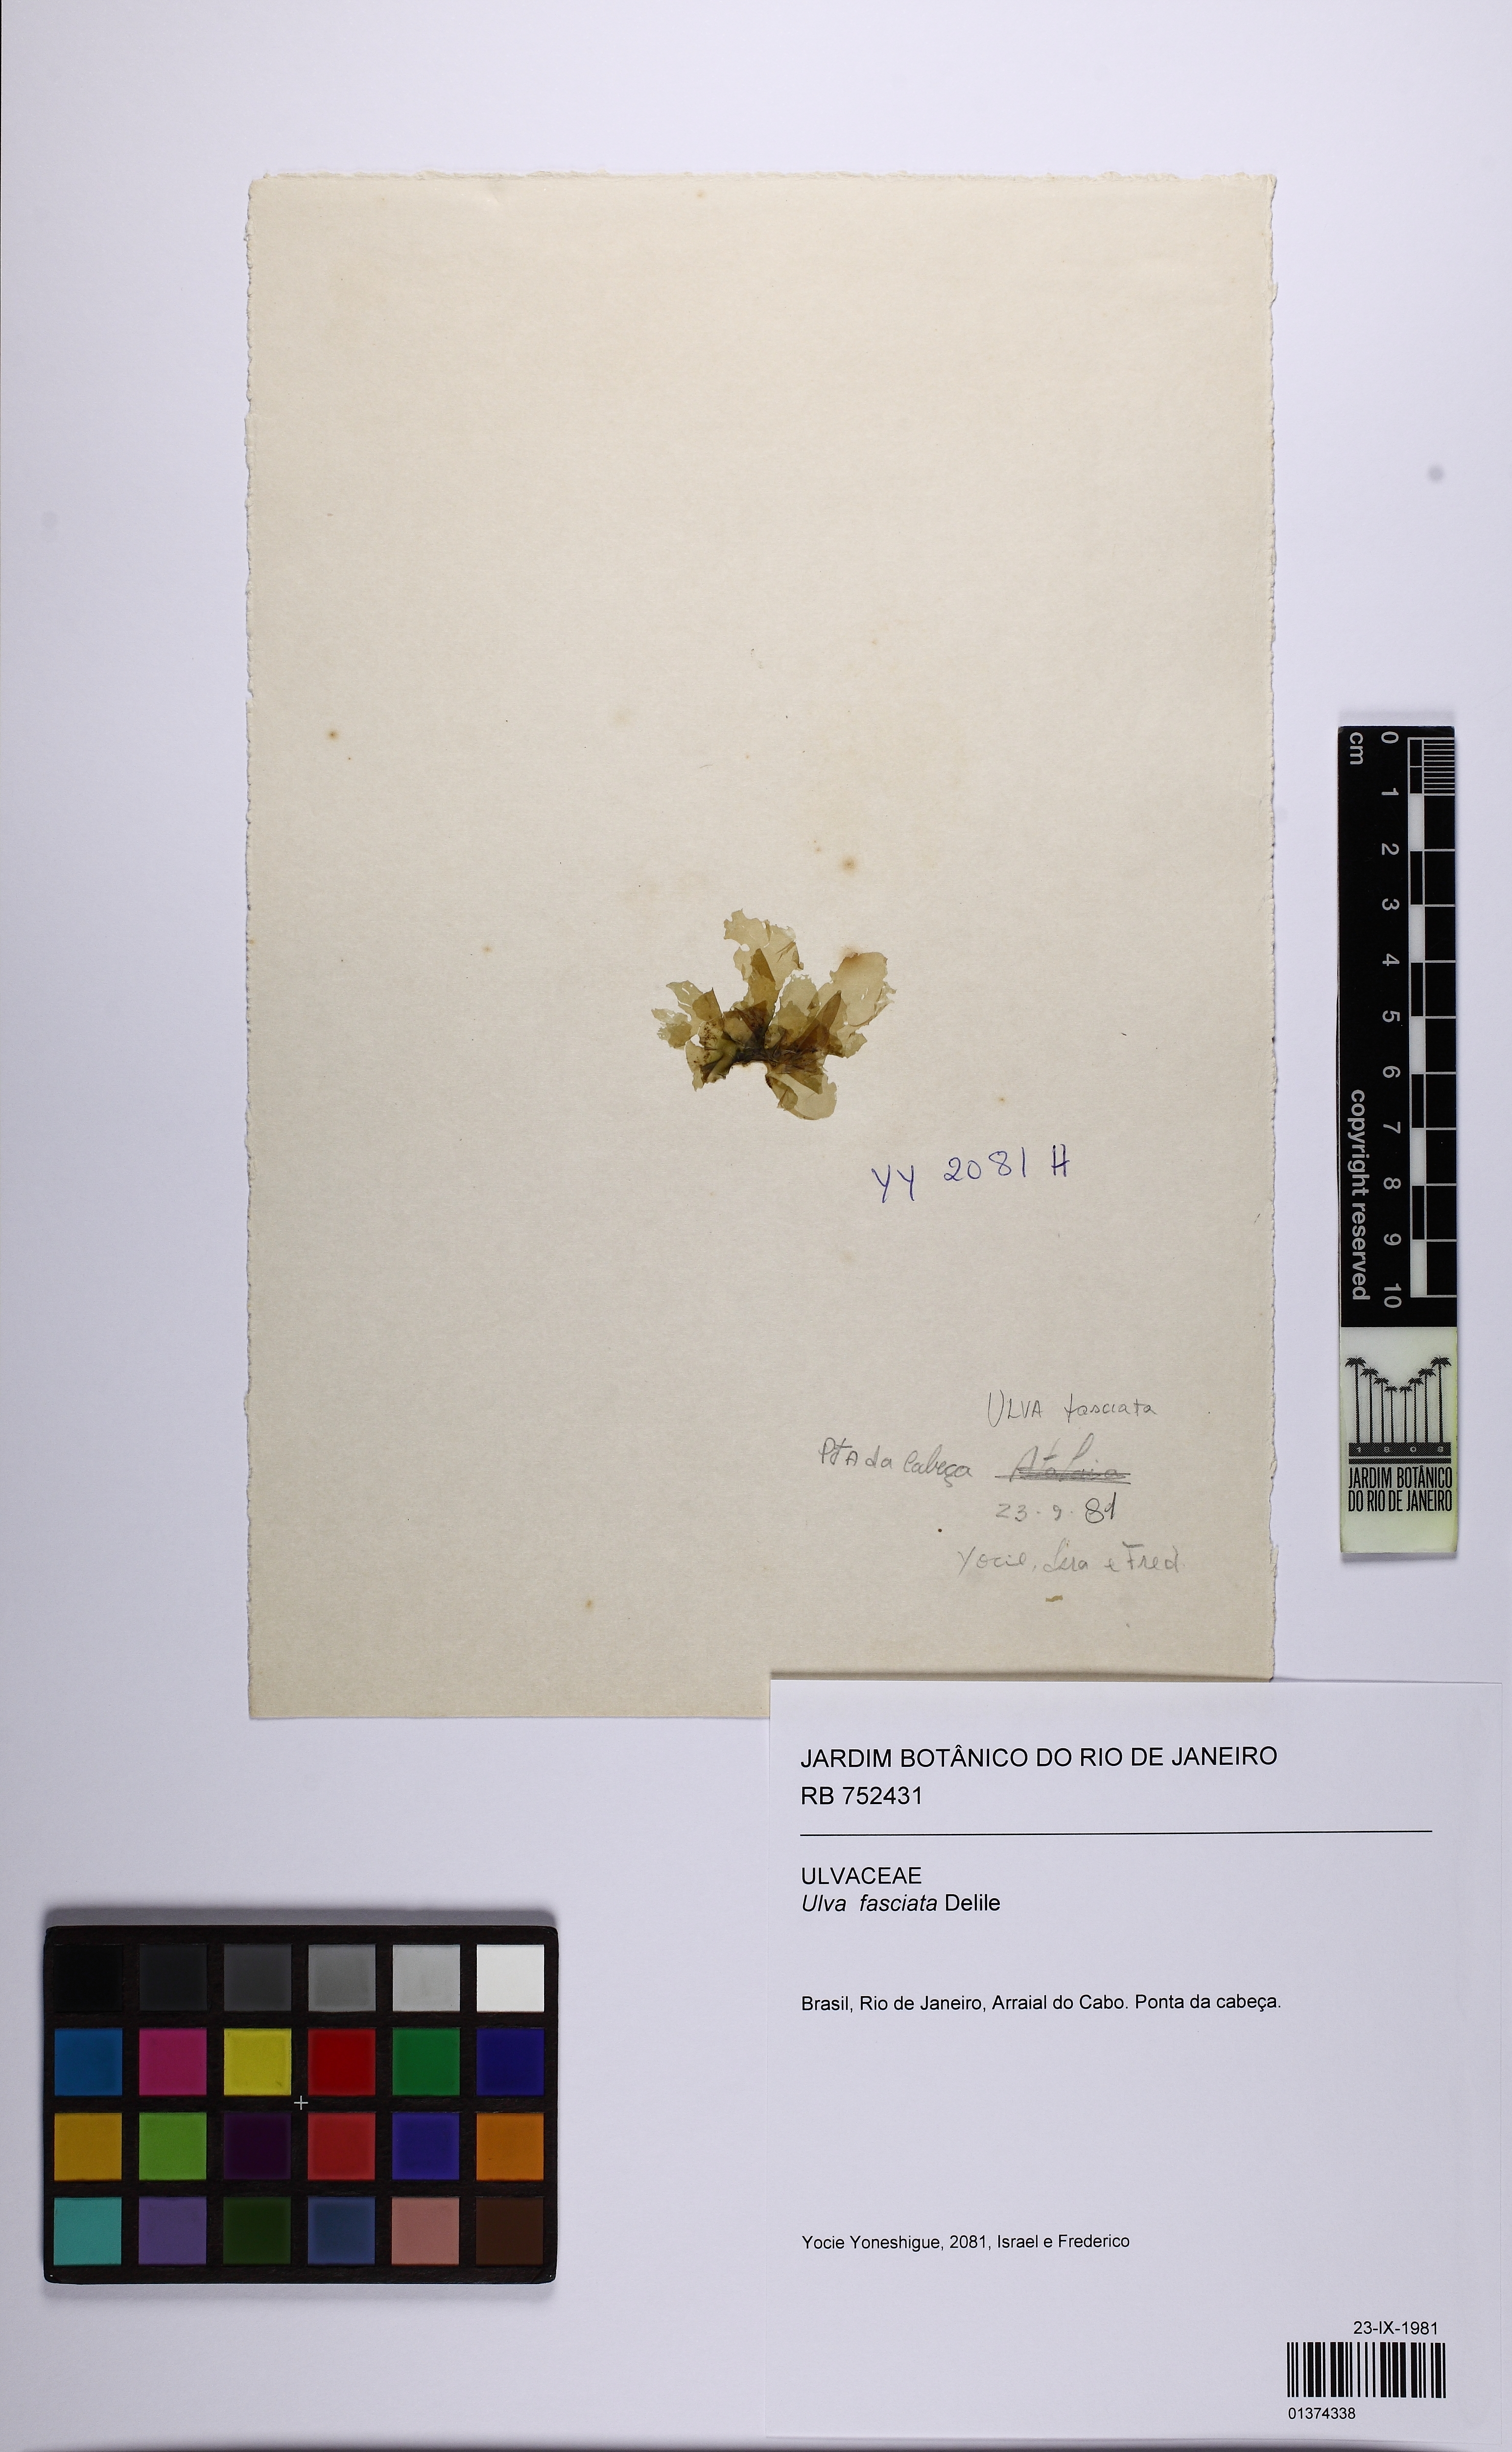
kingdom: Plantae
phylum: Chlorophyta
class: Ulvophyceae
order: Ulvales
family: Ulvaceae
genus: Ulva
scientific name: Ulva lactuca
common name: Sea lettuce
